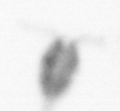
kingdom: Animalia
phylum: Arthropoda
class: Copepoda
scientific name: Copepoda
